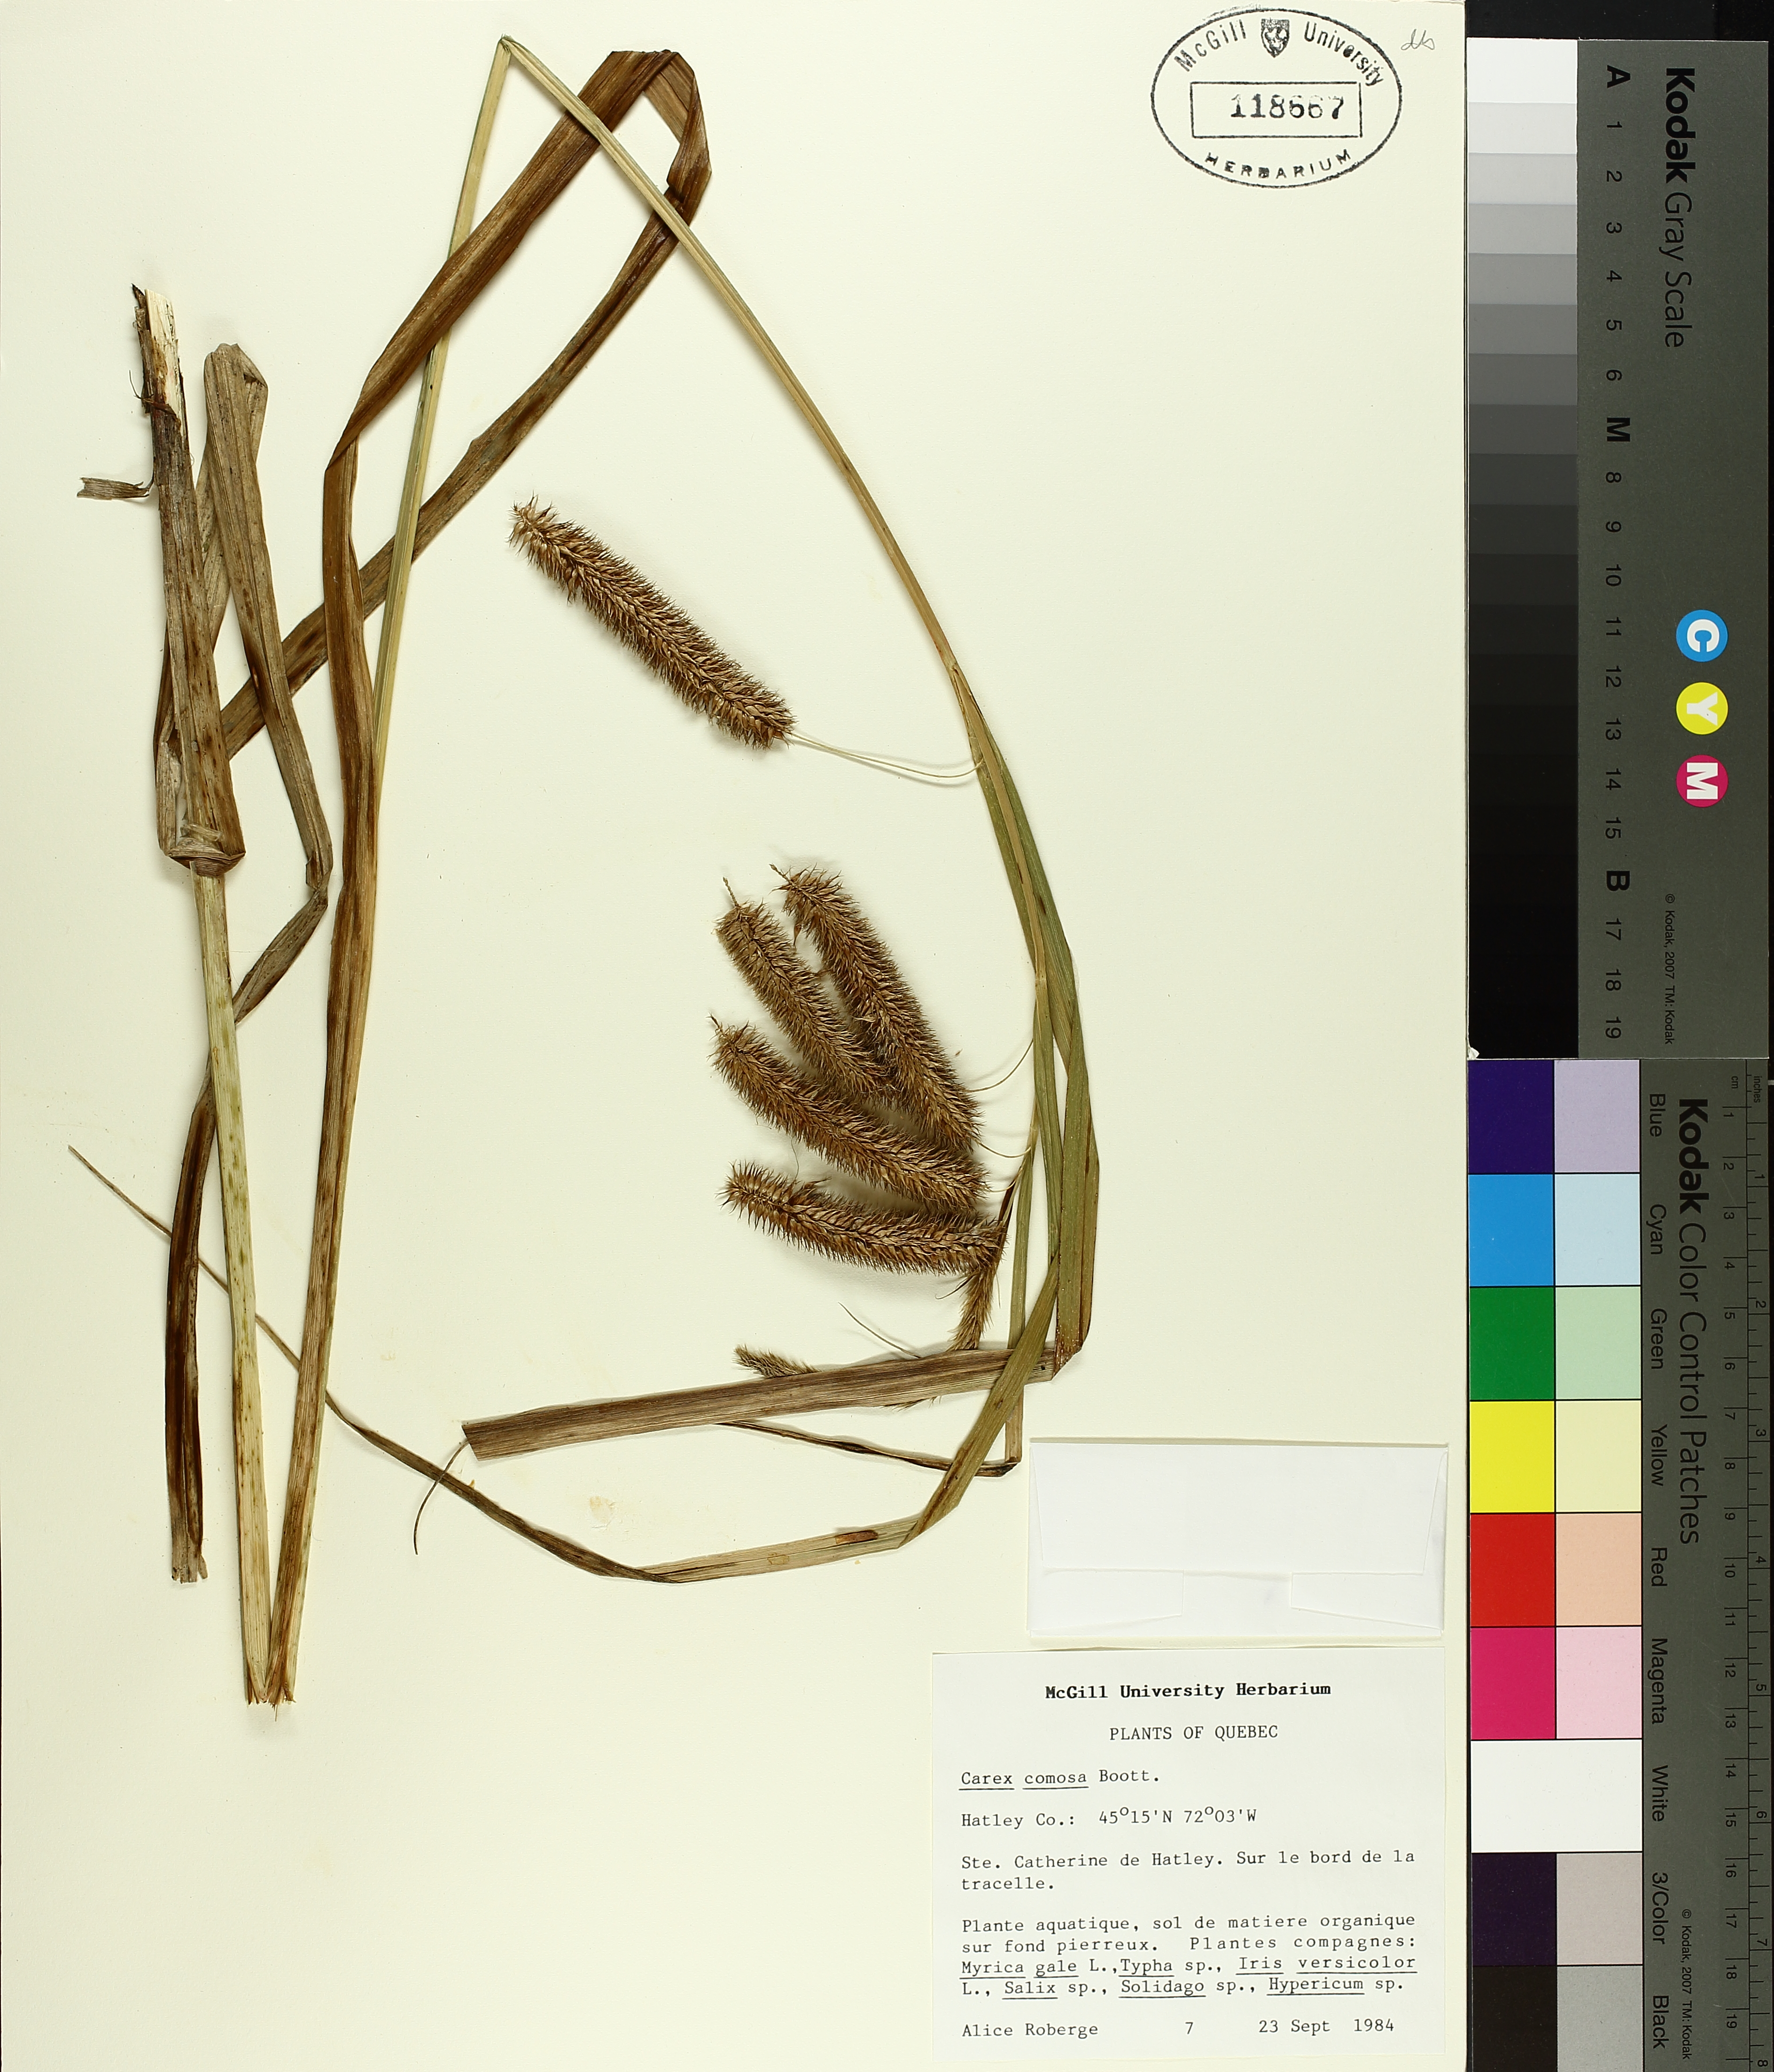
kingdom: Plantae
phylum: Tracheophyta
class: Liliopsida
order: Poales
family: Cyperaceae
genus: Carex
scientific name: Carex comosa
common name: Bristly sedge
